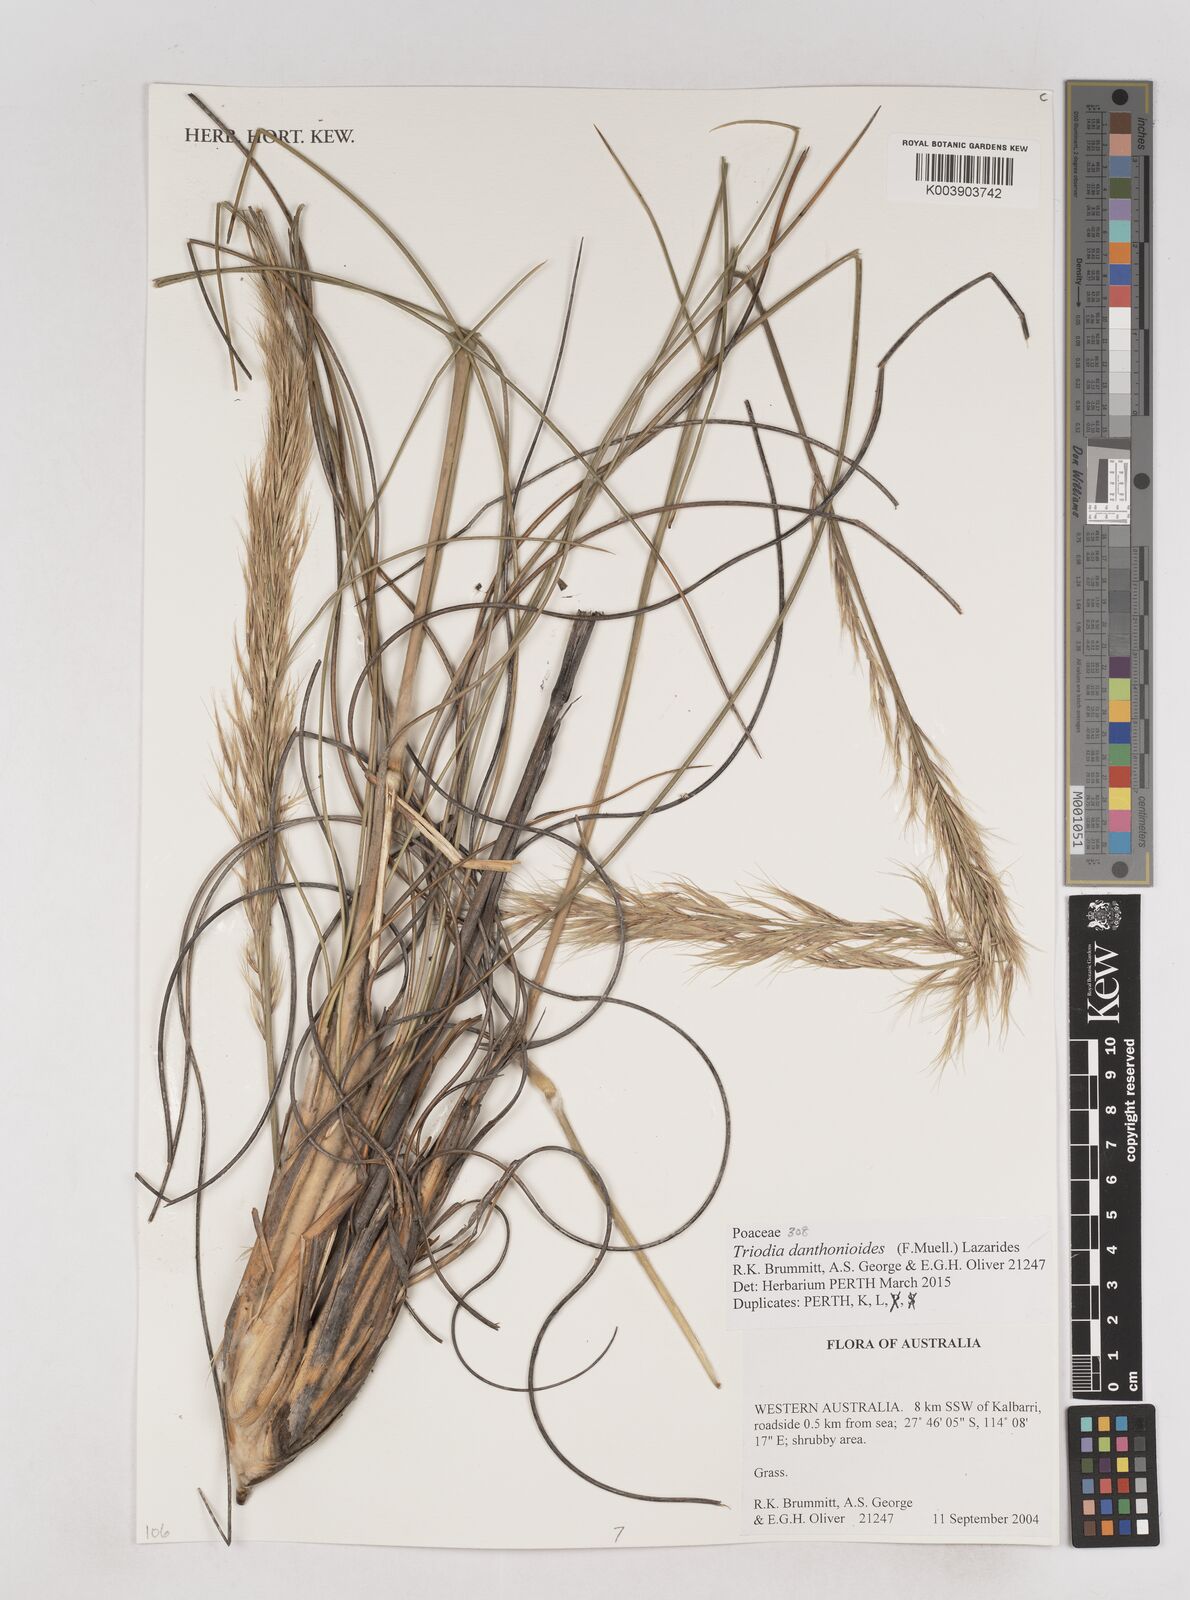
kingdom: Plantae
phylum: Tracheophyta
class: Liliopsida
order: Poales
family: Poaceae
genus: Triodia
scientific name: Triodia danthonioides
